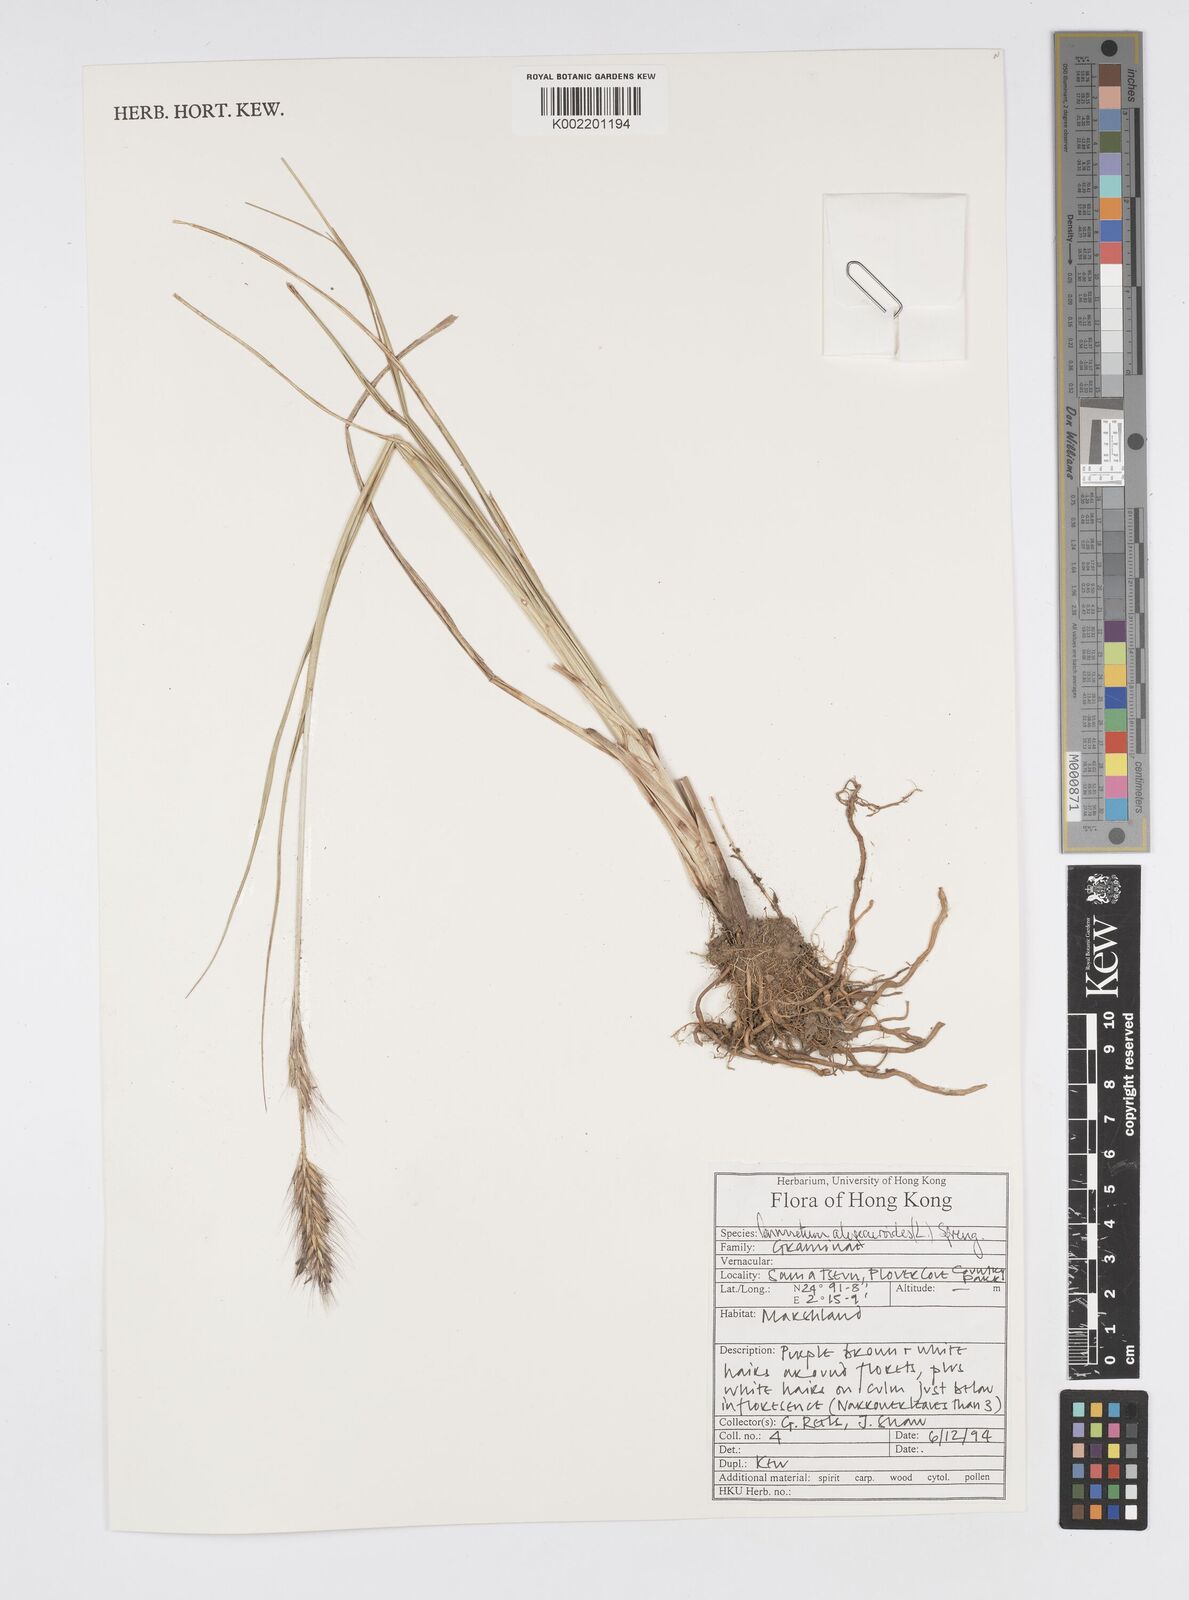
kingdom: Plantae
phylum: Tracheophyta
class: Liliopsida
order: Poales
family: Poaceae
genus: Cenchrus
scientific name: Cenchrus alopecuroides
